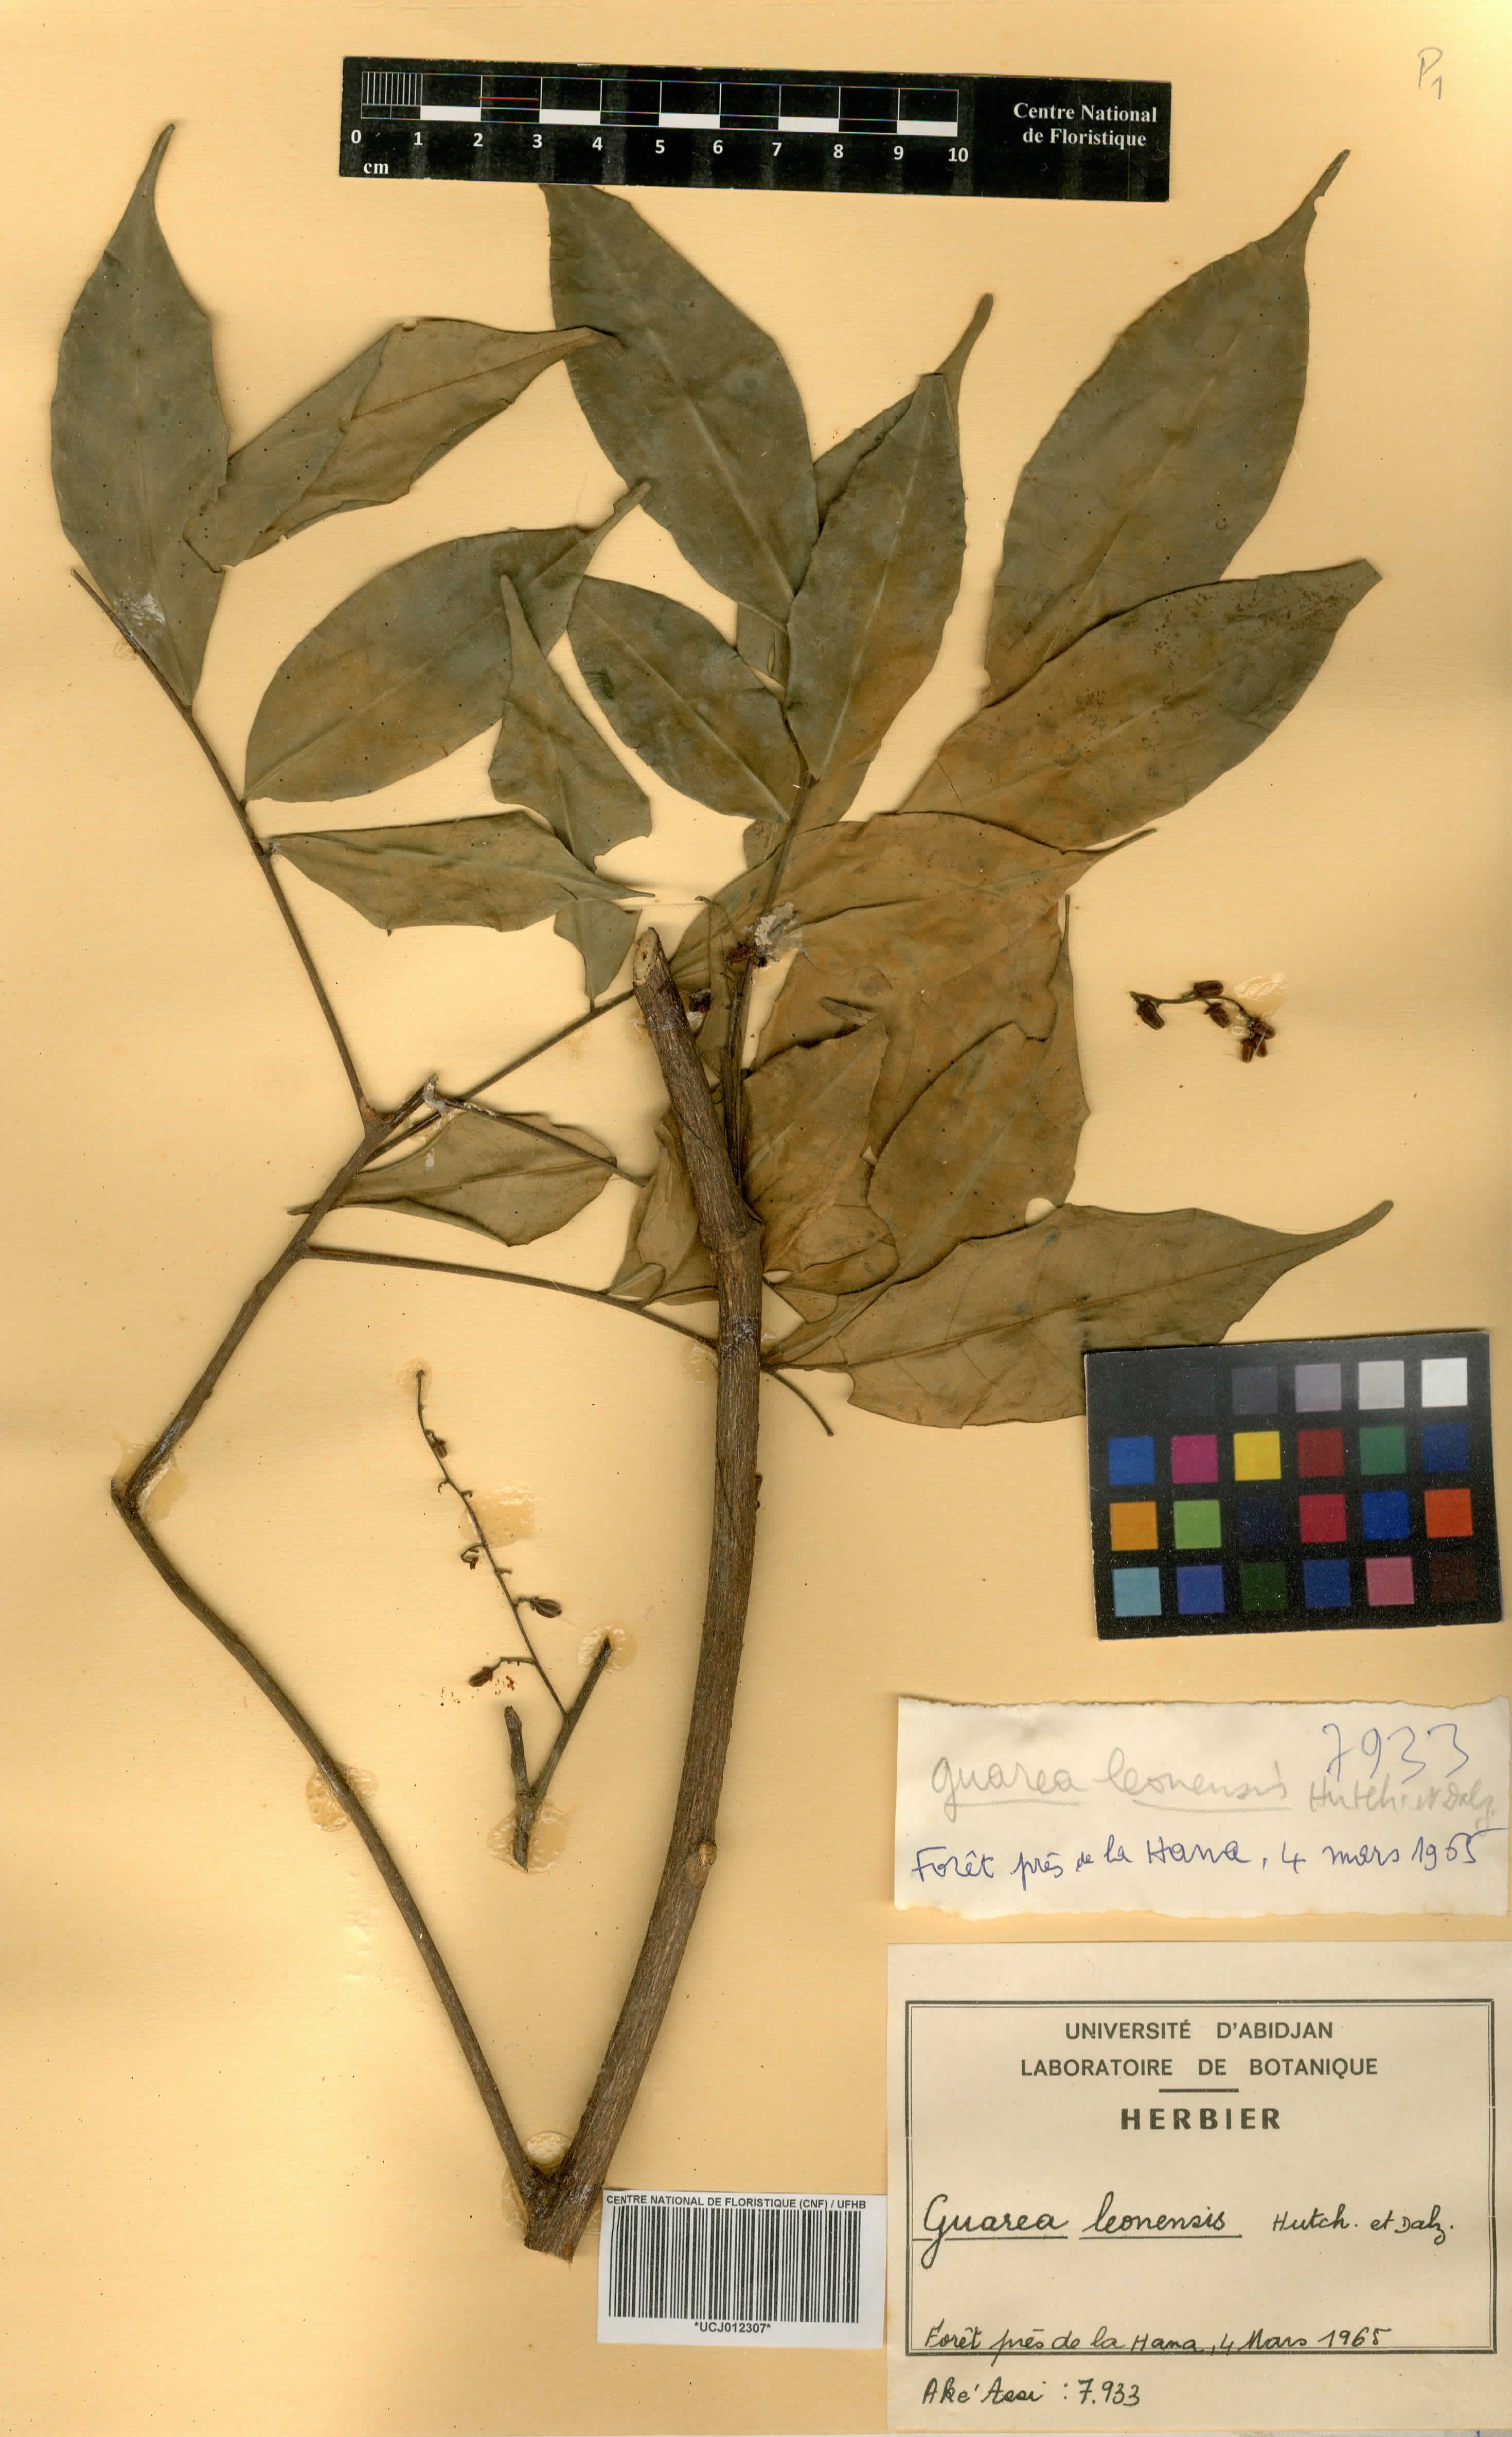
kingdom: Plantae
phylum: Tracheophyta
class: Magnoliopsida
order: Sapindales
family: Meliaceae
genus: Heckeldora
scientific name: Heckeldora leonensis
